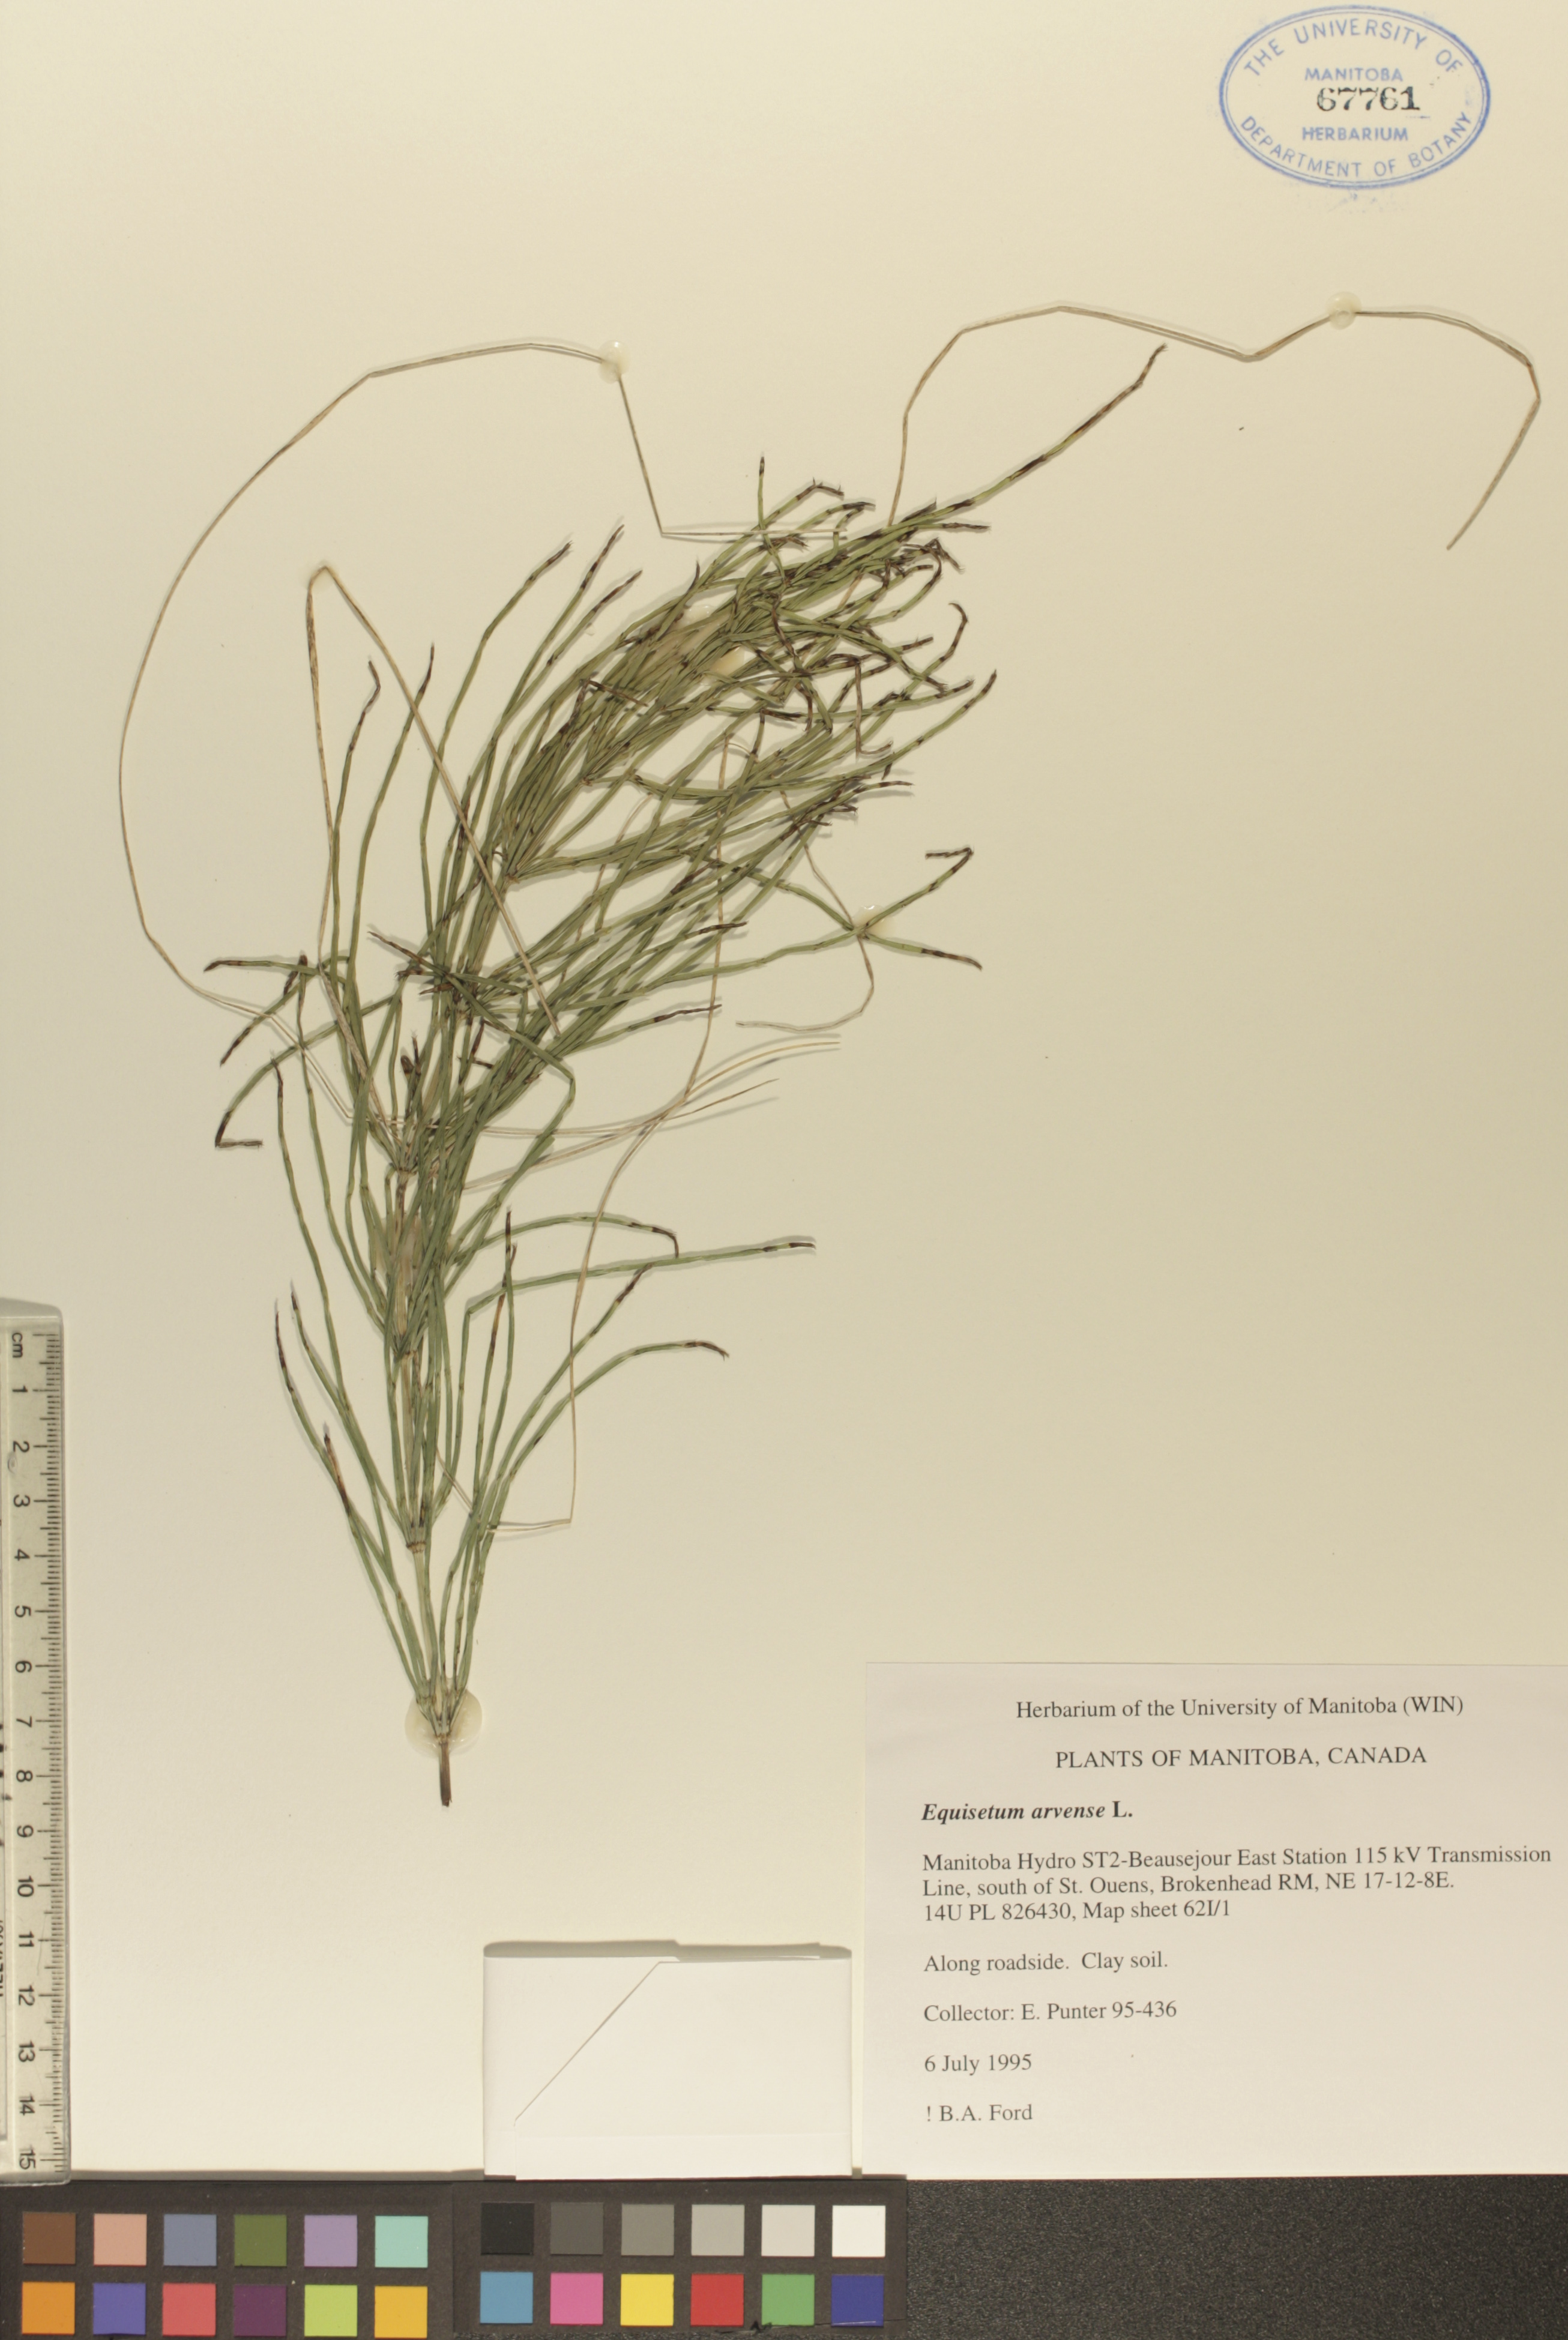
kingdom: Plantae
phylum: Tracheophyta
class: Polypodiopsida
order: Equisetales
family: Equisetaceae
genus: Equisetum
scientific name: Equisetum arvense
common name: Field horsetail
